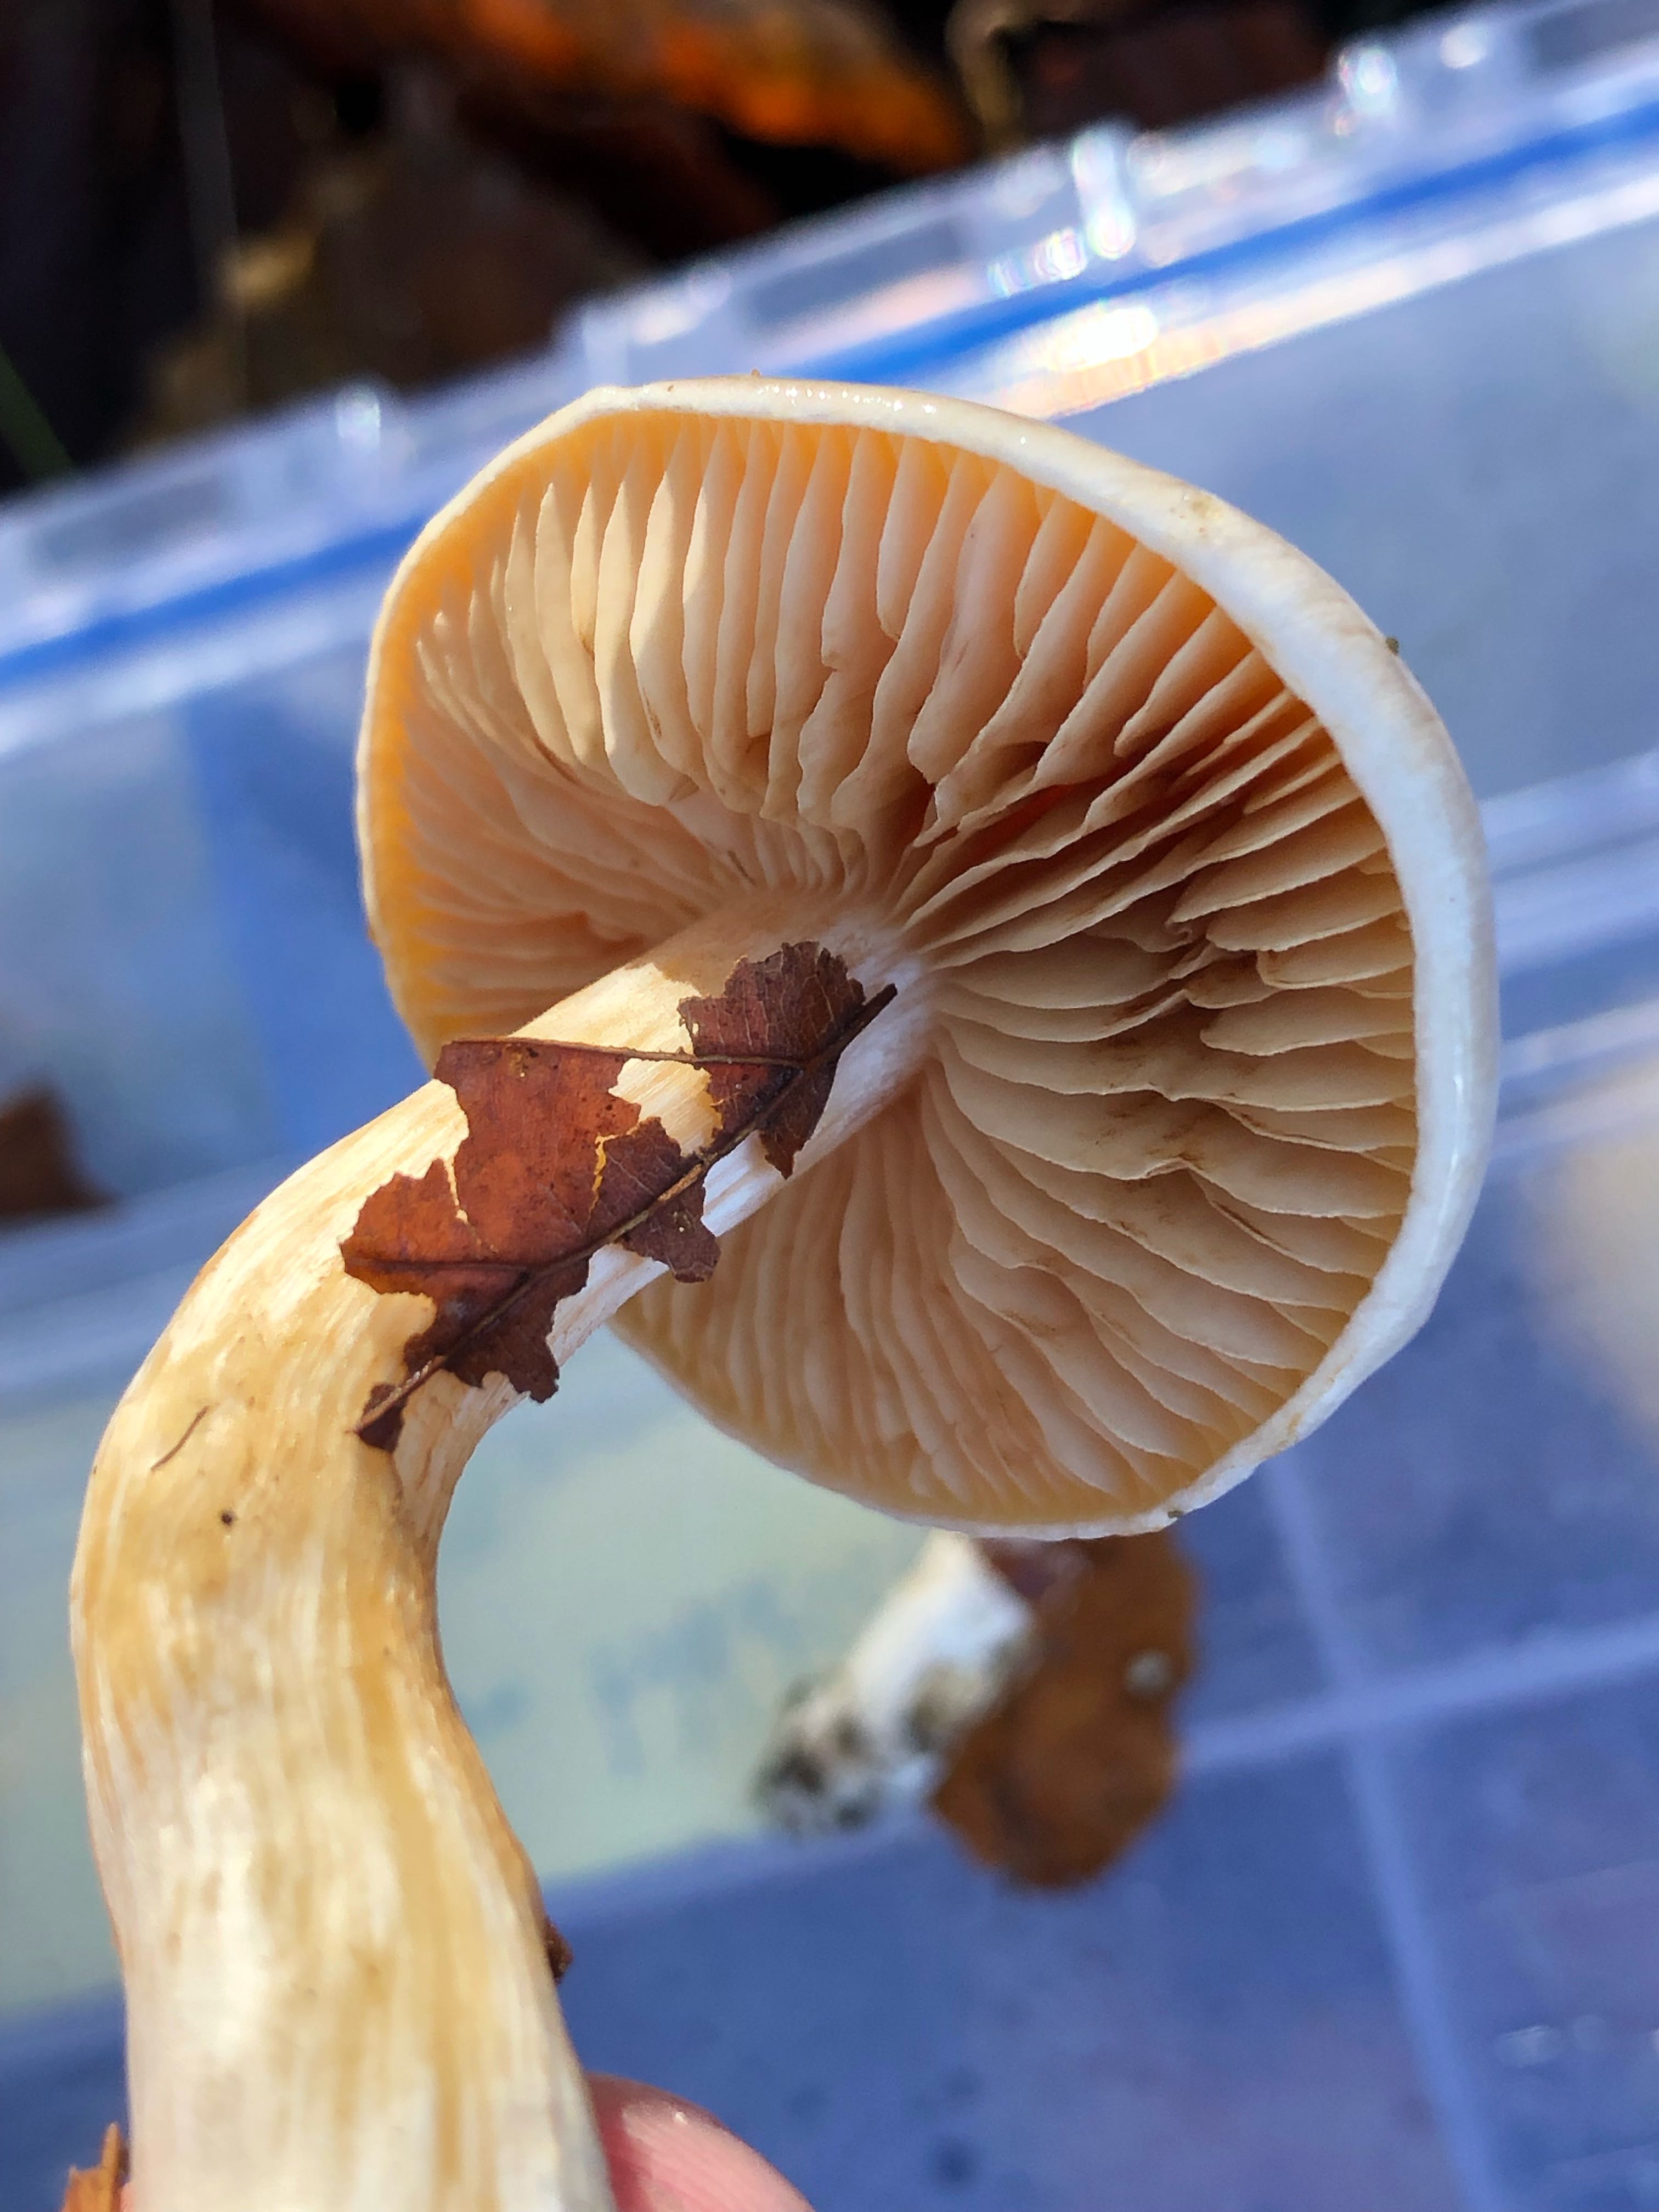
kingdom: Fungi
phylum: Basidiomycota
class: Agaricomycetes
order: Agaricales
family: Cortinariaceae
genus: Thaxterogaster
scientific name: Thaxterogaster barbatus
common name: elfenbens-slørhat
